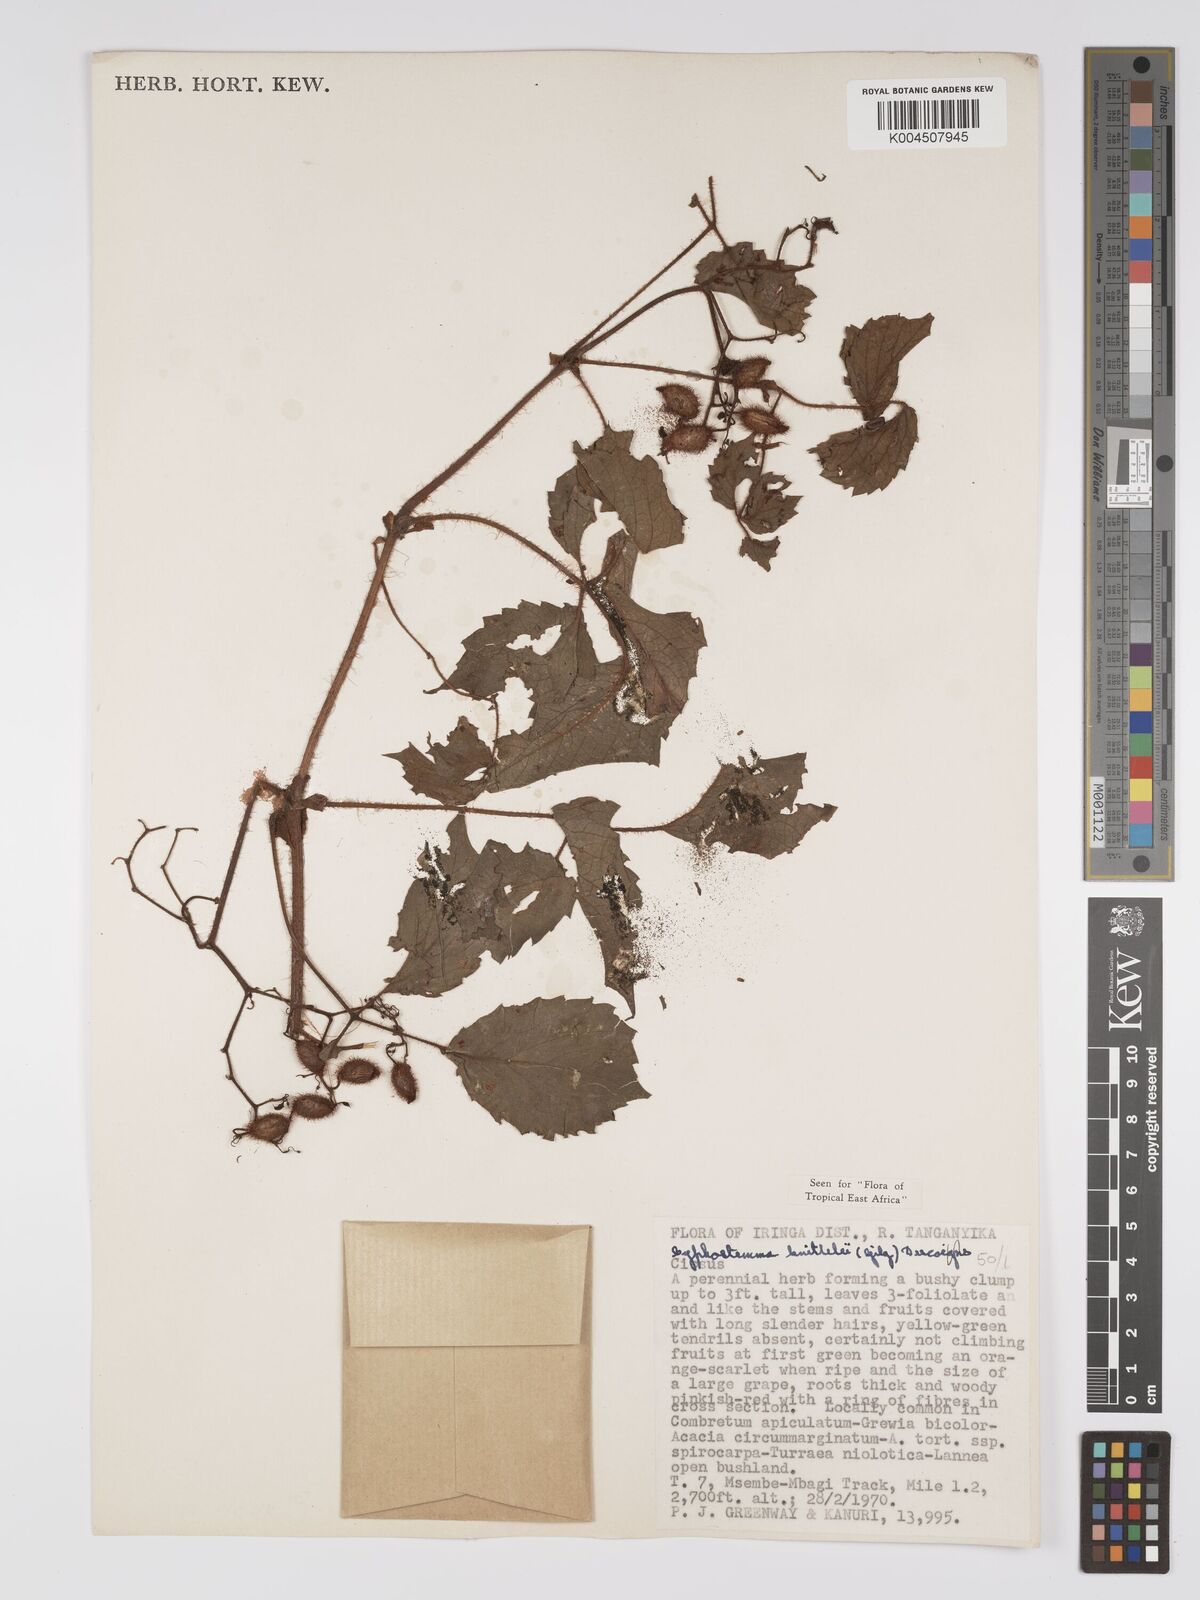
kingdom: Plantae
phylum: Tracheophyta
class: Magnoliopsida
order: Vitales
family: Vitaceae
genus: Cyphostemma
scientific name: Cyphostemma knittelii
